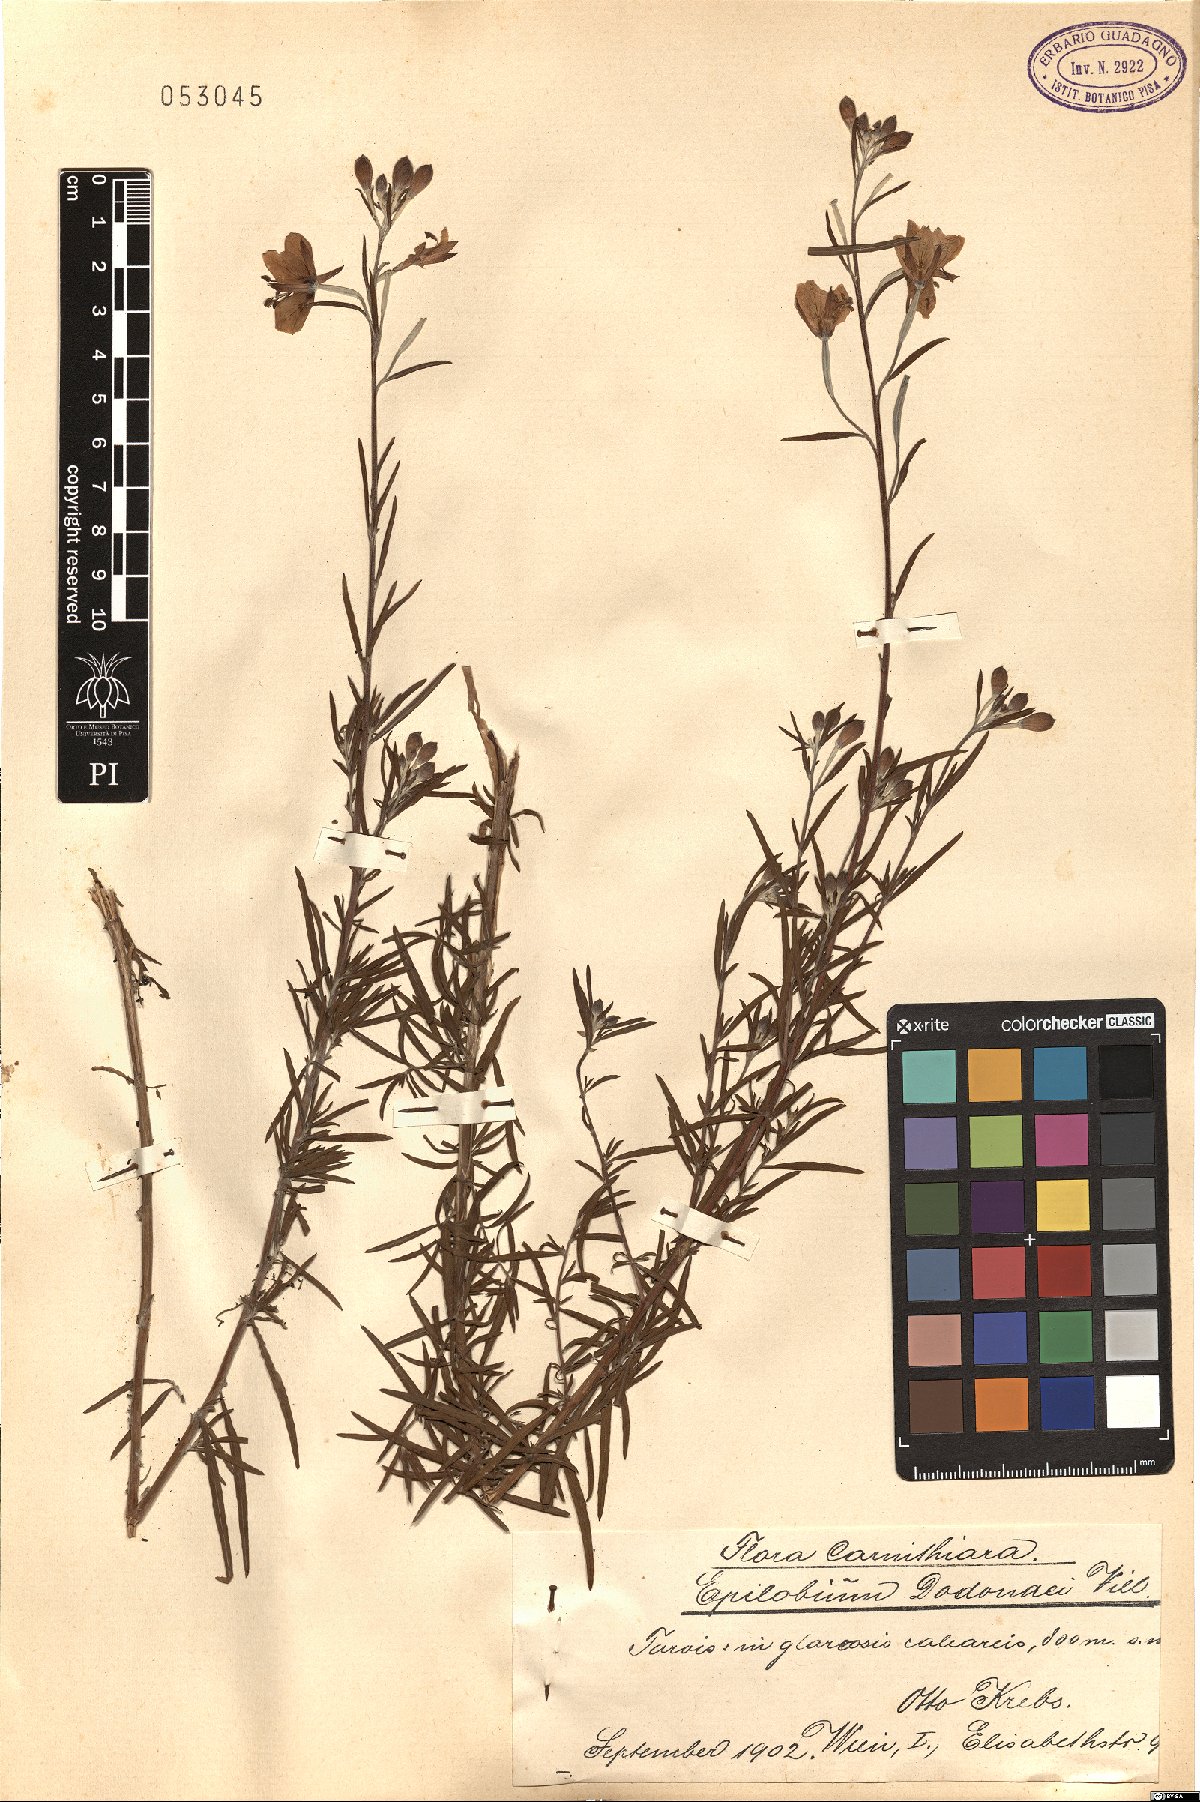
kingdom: Plantae
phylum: Tracheophyta
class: Magnoliopsida
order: Myrtales
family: Onagraceae
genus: Chamaenerion
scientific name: Chamaenerion dodonaei
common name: Rosemary-leaved willowherb
